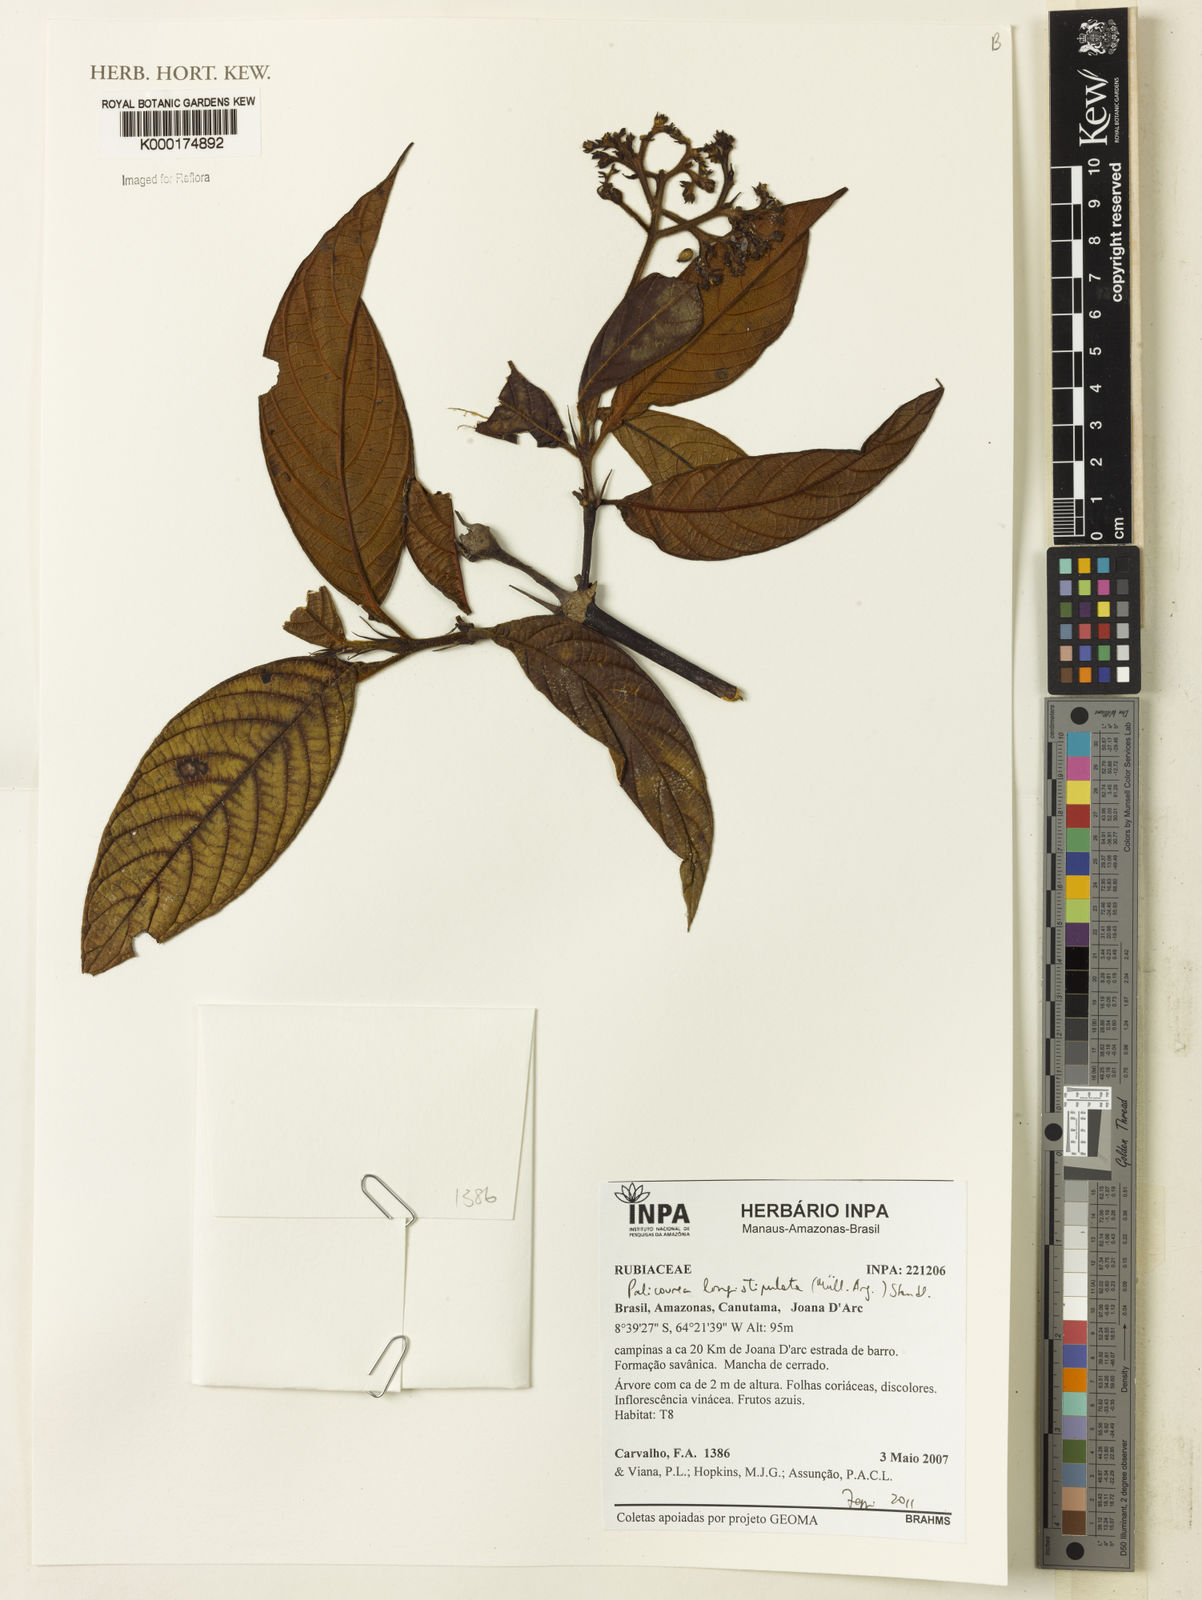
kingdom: Plantae
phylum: Tracheophyta
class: Magnoliopsida
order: Gentianales
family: Rubiaceae
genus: Palicourea
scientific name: Palicourea
